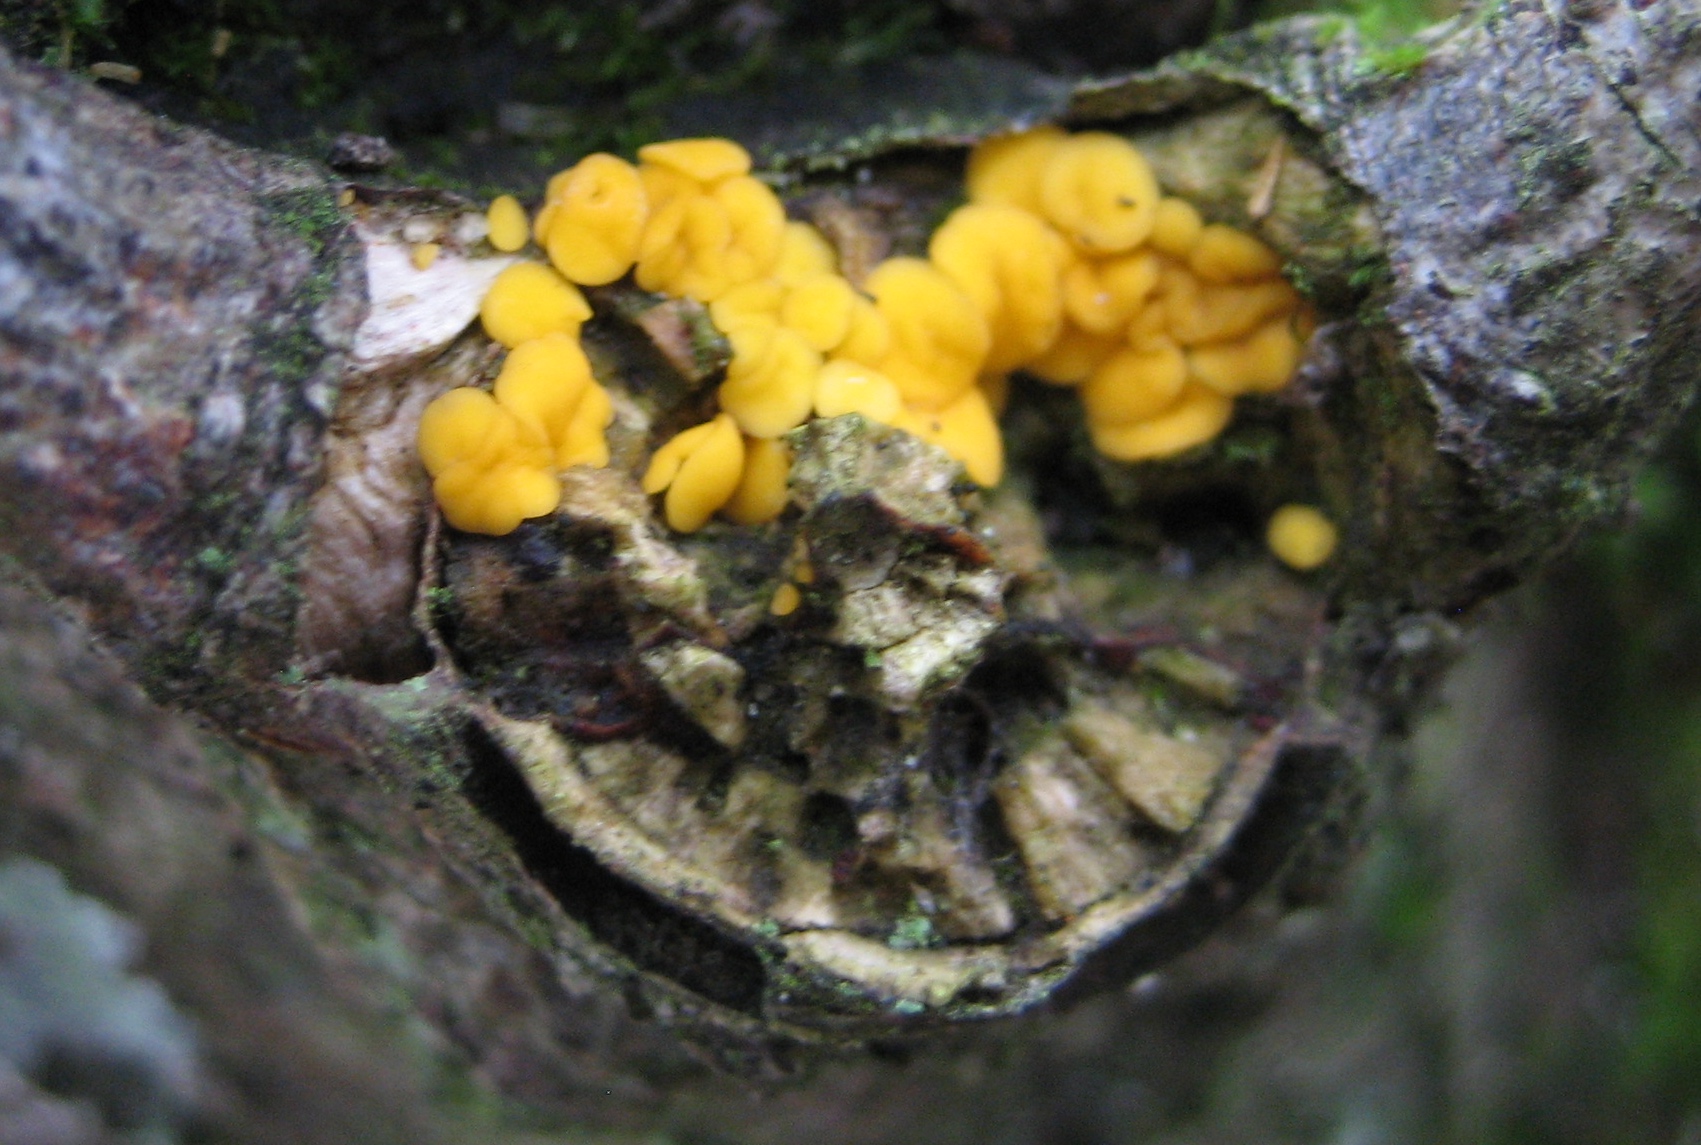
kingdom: Fungi
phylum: Ascomycota
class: Leotiomycetes
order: Helotiales
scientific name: Helotiales
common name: stilkskiveordenen
